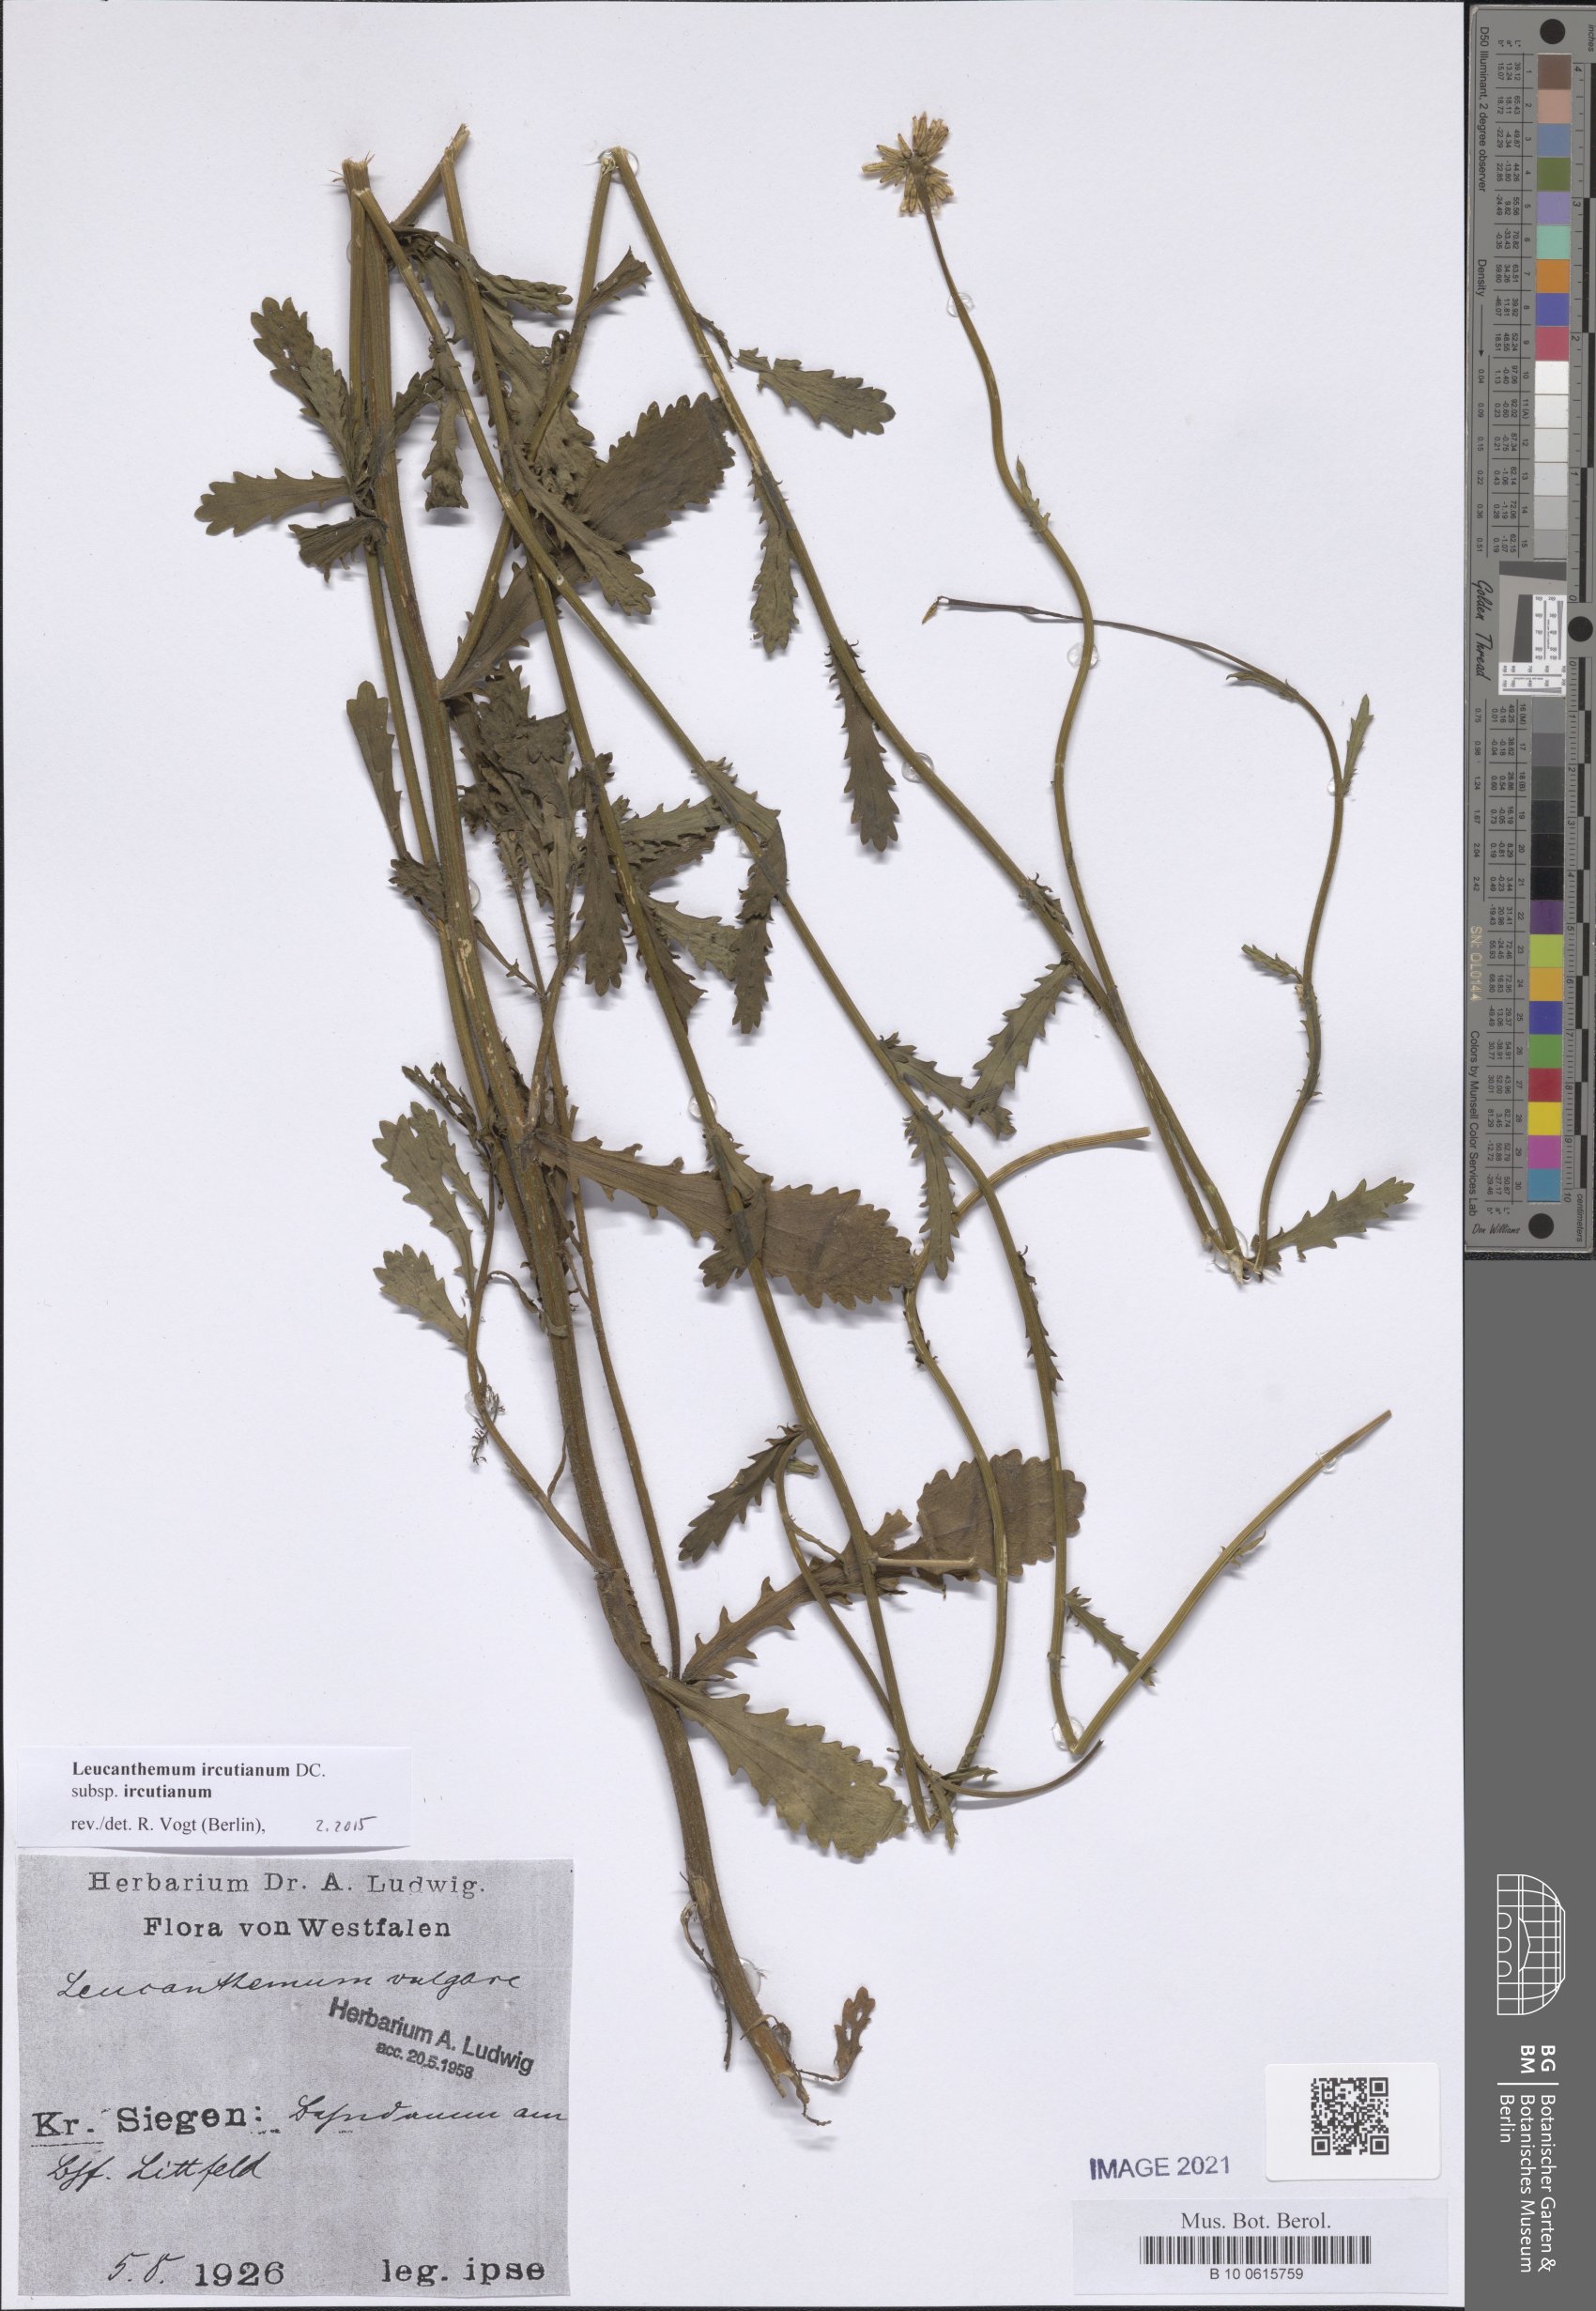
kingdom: Plantae
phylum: Tracheophyta
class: Magnoliopsida
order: Asterales
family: Asteraceae
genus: Leucanthemum
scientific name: Leucanthemum ircutianum
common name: Daisy
